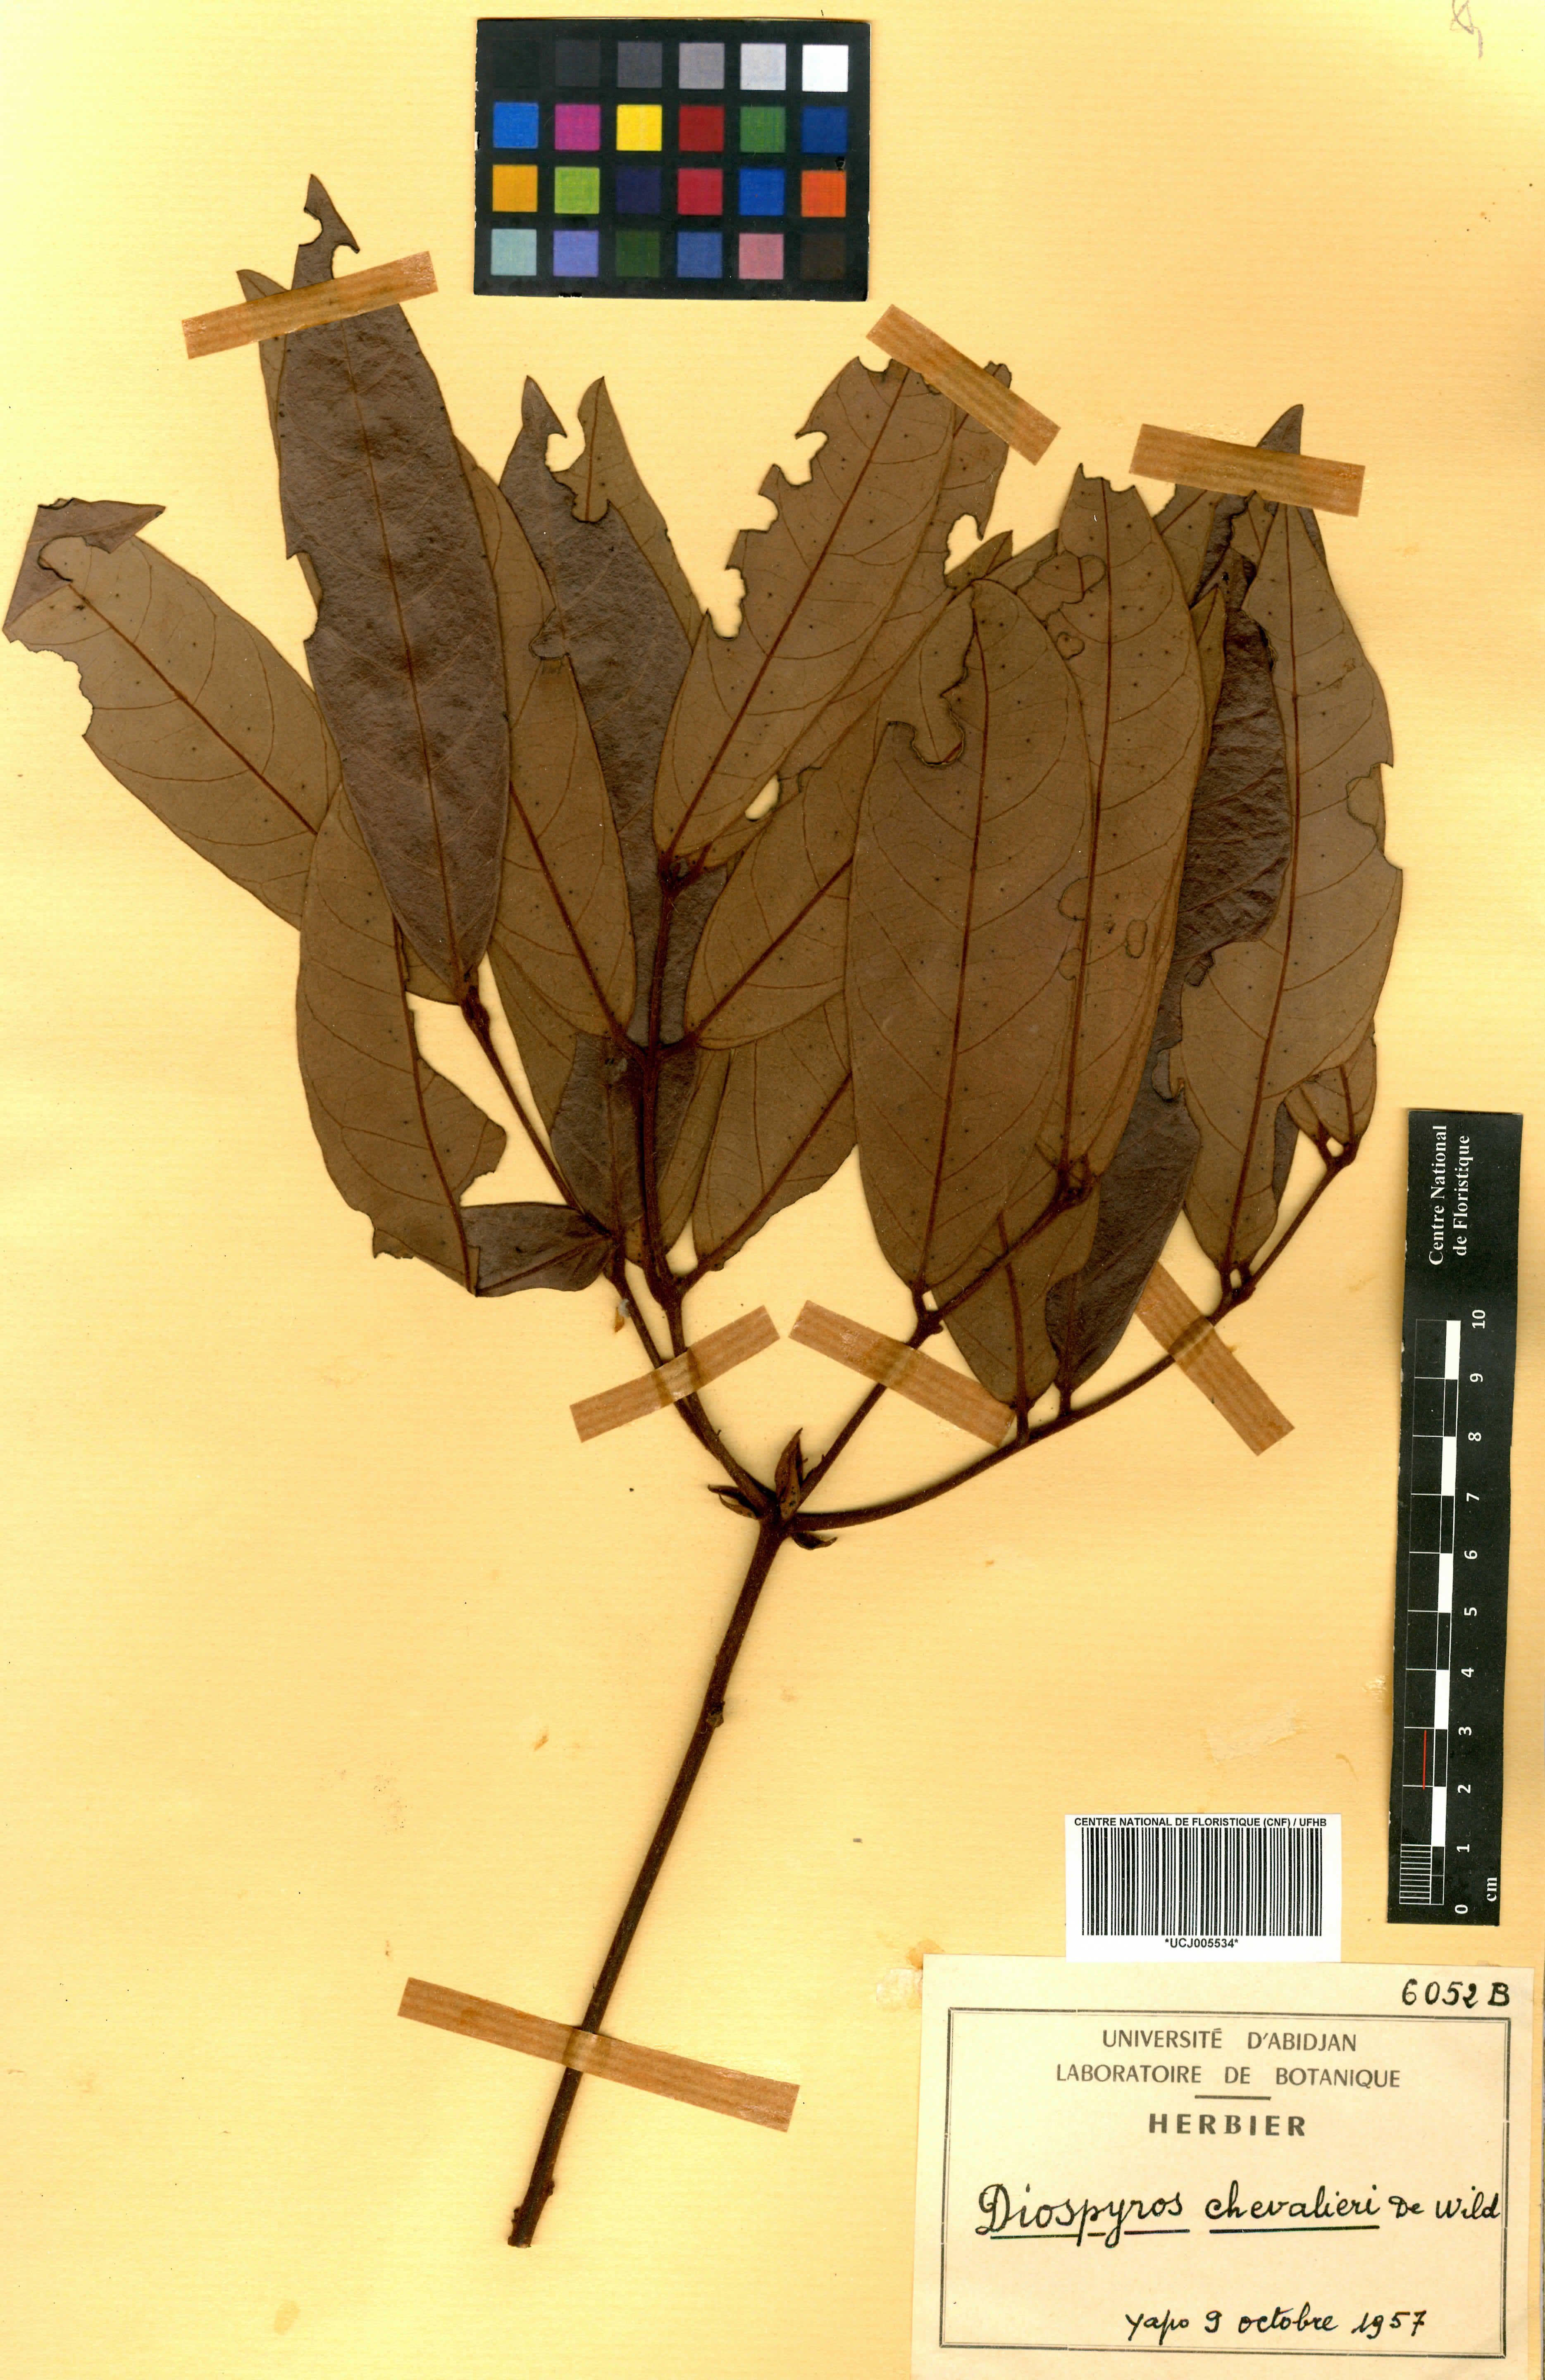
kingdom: Plantae
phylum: Tracheophyta
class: Magnoliopsida
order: Ericales
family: Ebenaceae
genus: Diospyros
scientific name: Diospyros chevalieri
